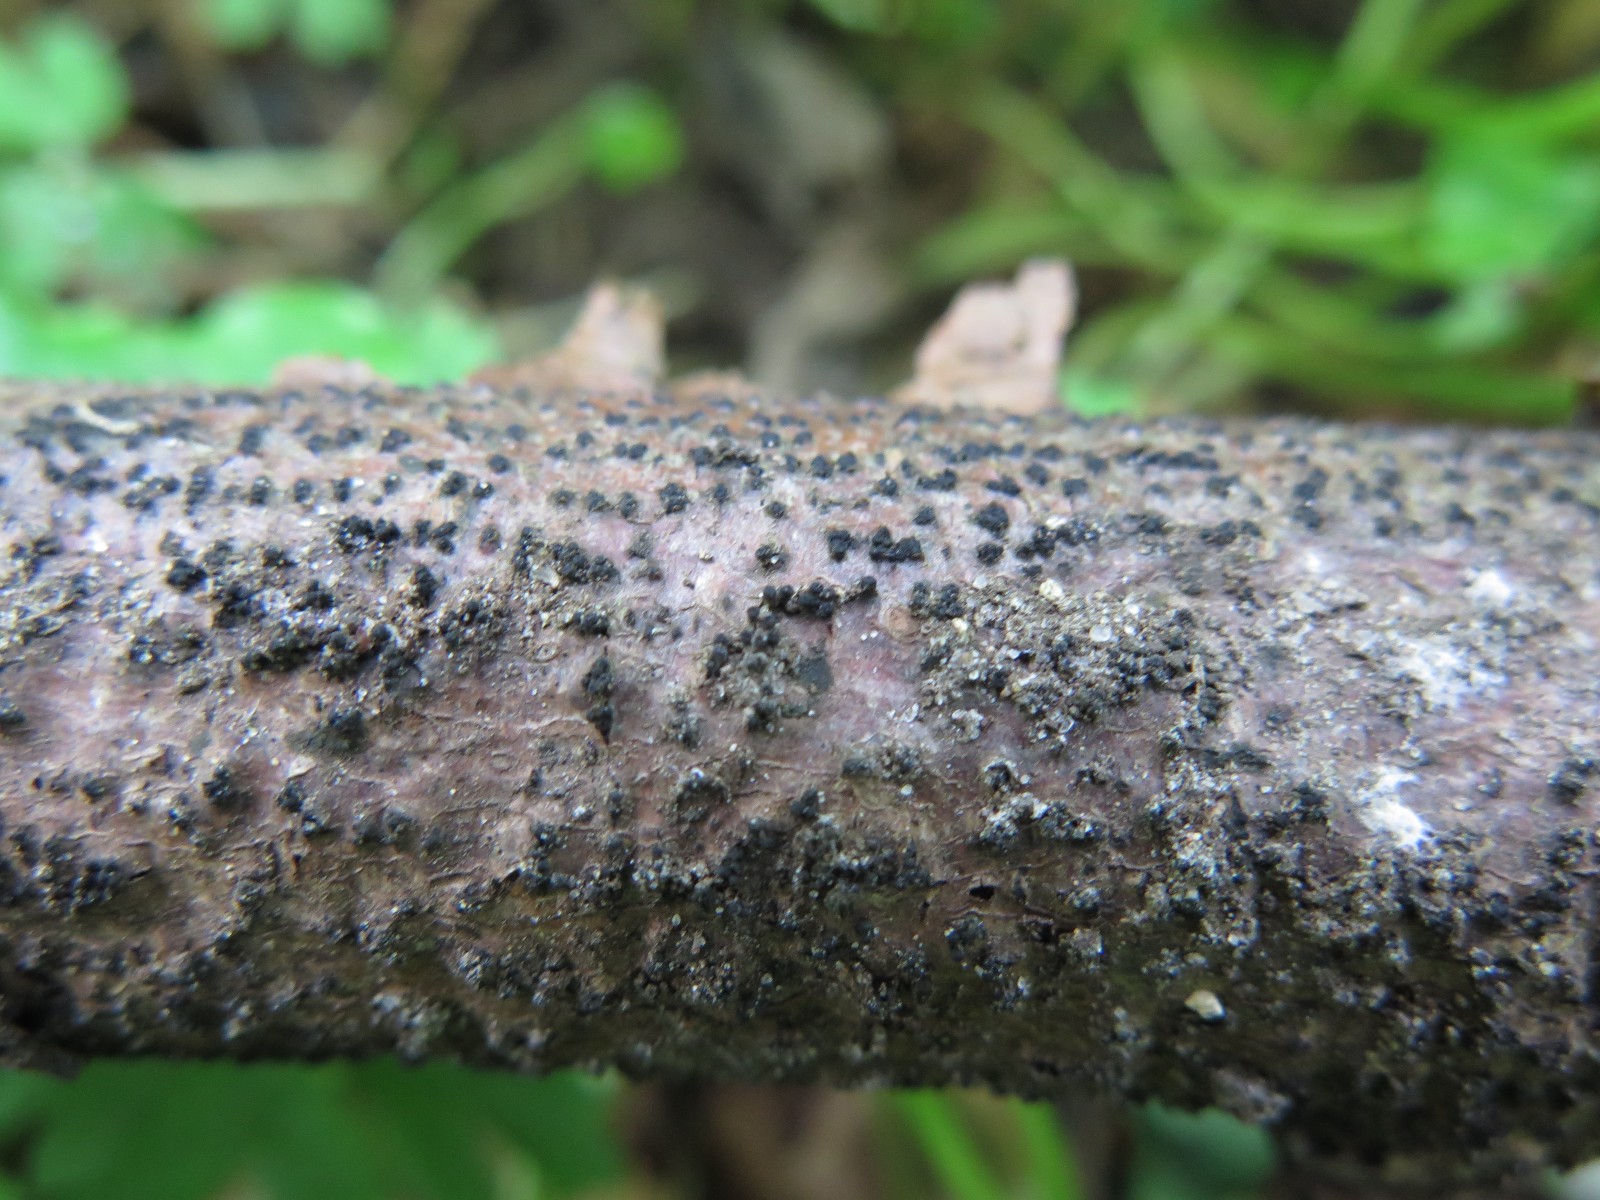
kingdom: Fungi
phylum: Ascomycota
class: Sordariomycetes
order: Xylariales
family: Diatrypaceae
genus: Eutypella
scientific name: Eutypella quaternata
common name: bøge-korsprik
